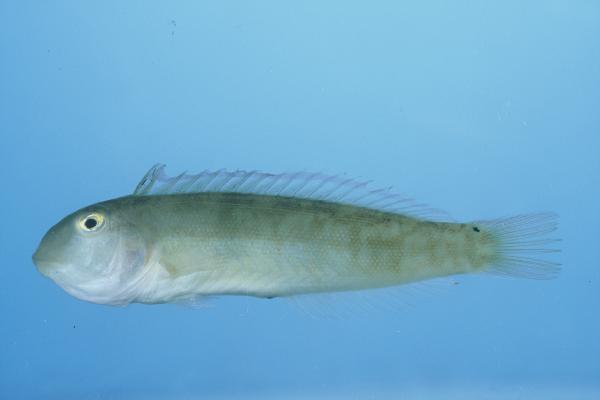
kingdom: Animalia
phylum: Chordata
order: Perciformes
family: Labridae
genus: Cymolutes
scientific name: Cymolutes torquatus
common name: Razor wrasse
